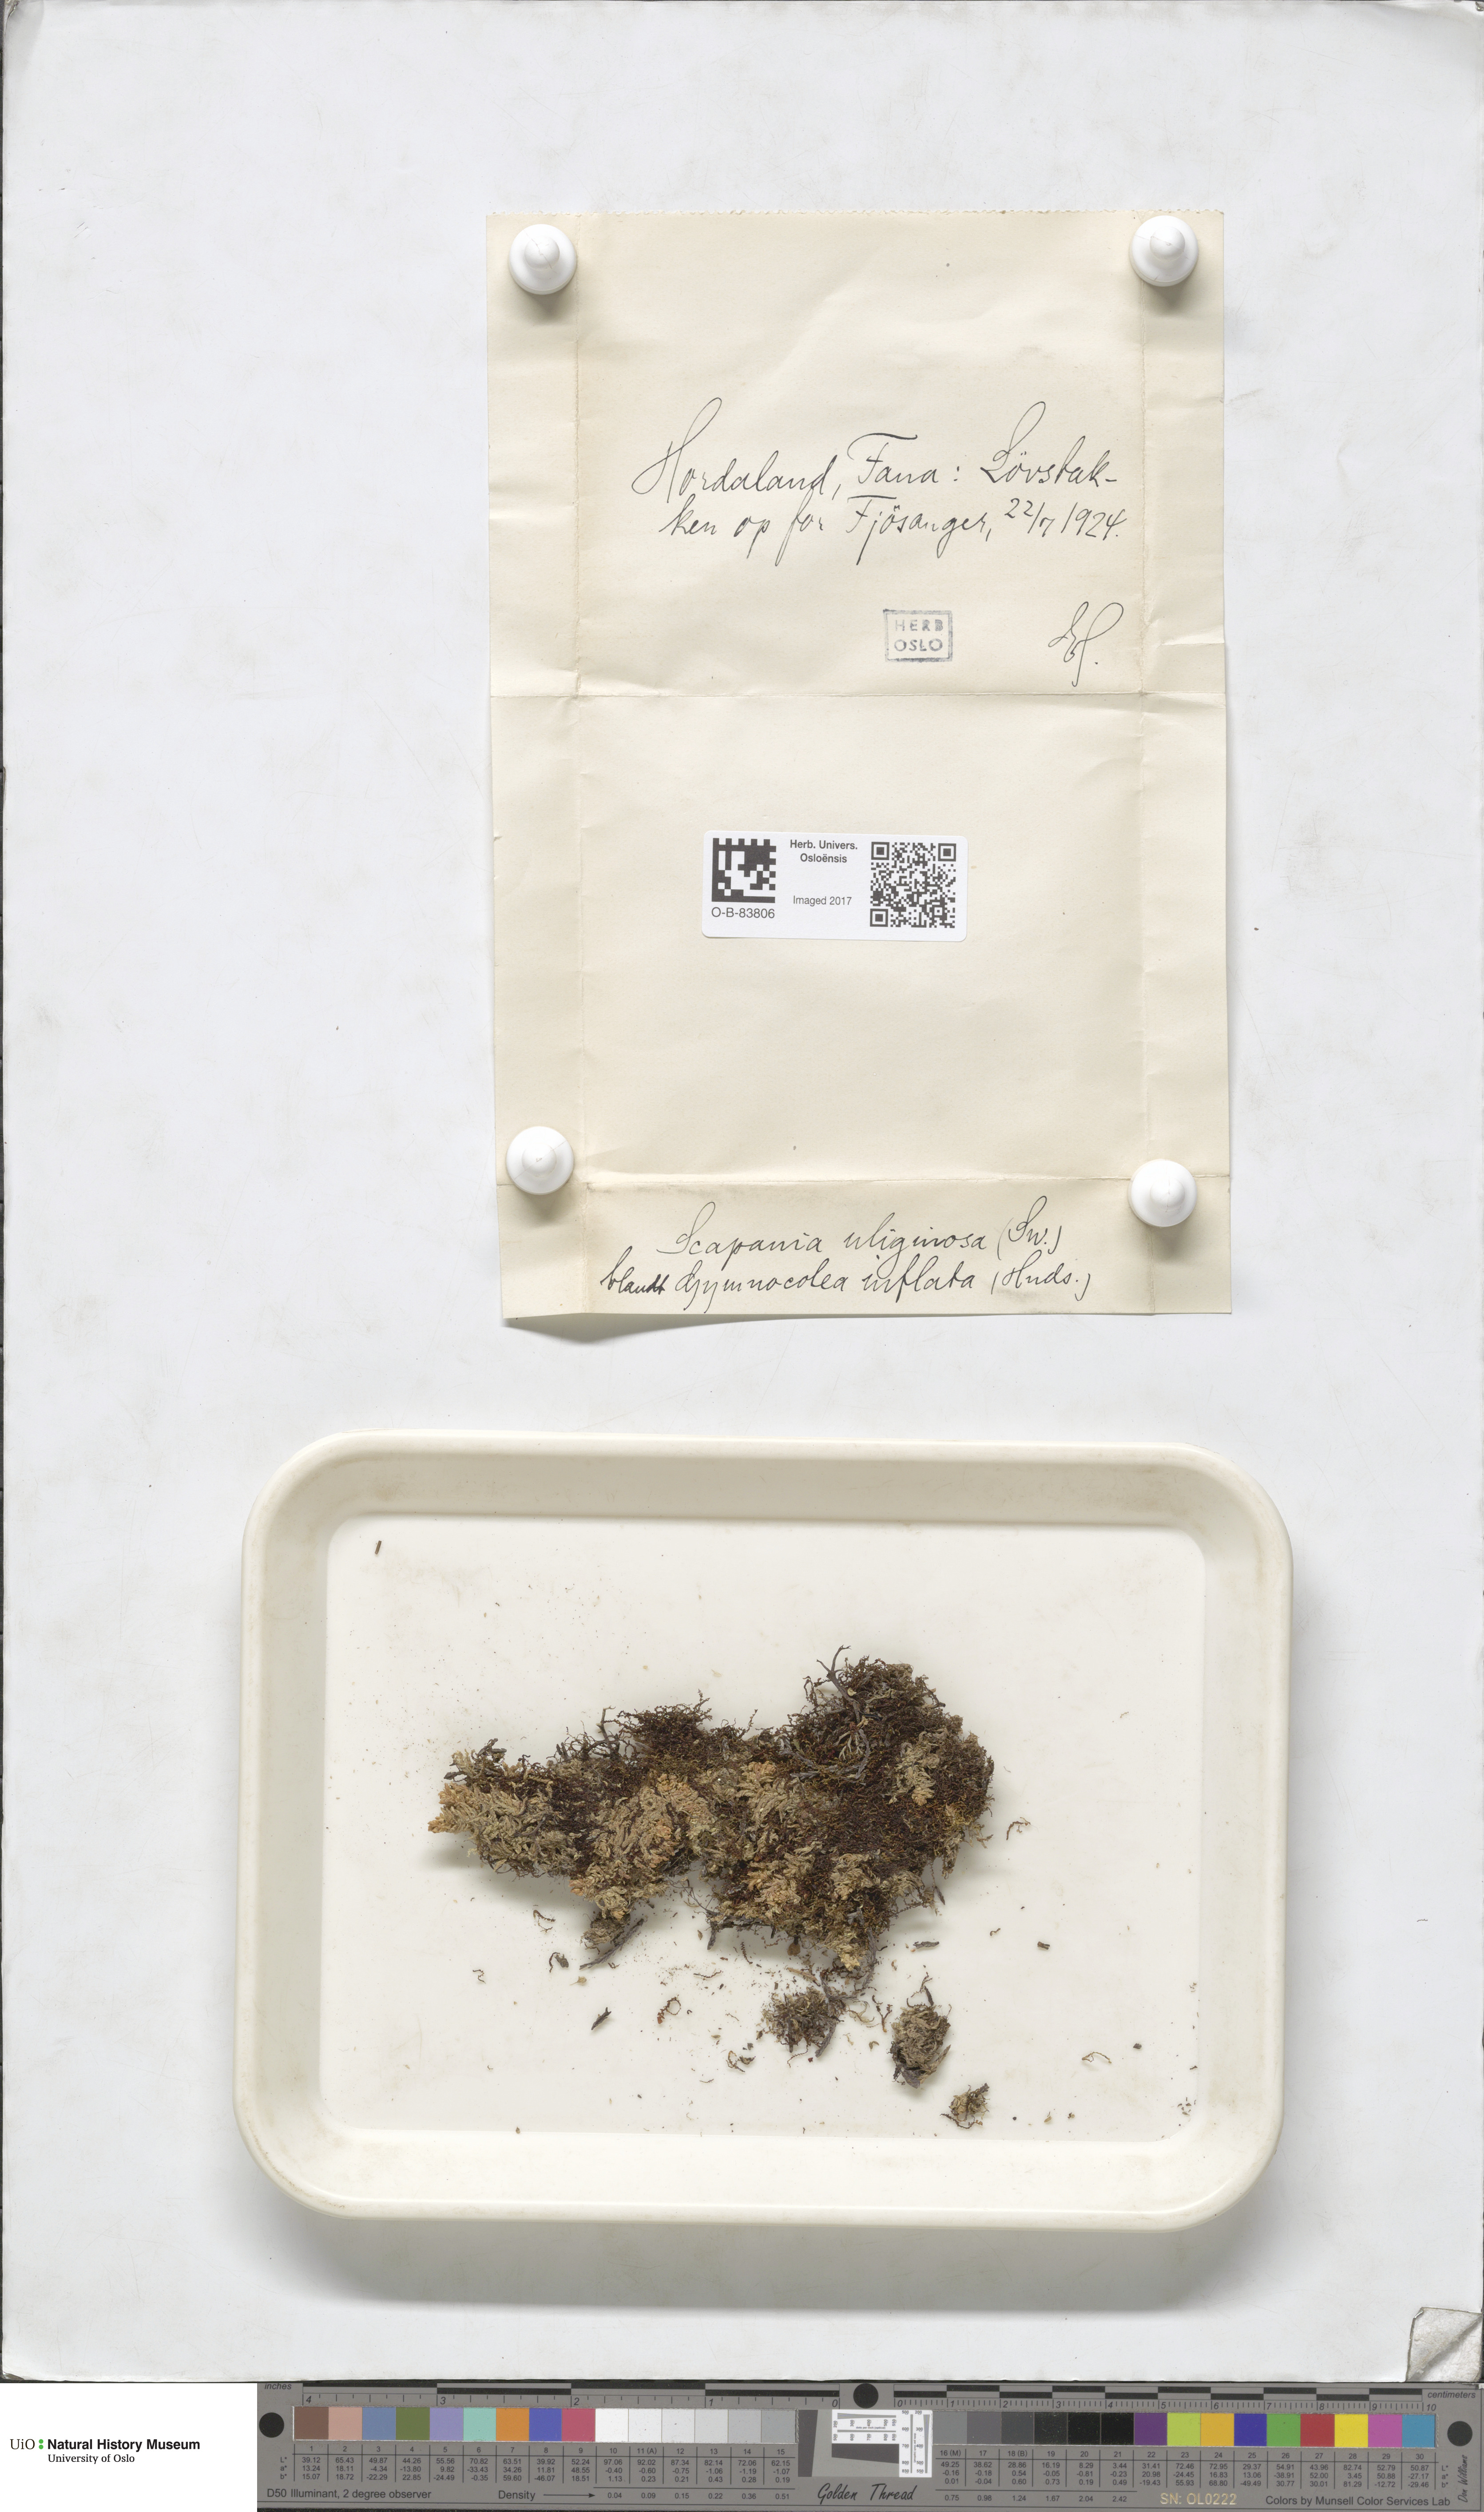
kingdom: Plantae
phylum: Marchantiophyta
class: Jungermanniopsida
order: Jungermanniales
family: Scapaniaceae
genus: Scapania
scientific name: Scapania uliginosa
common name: Marsh earwort
